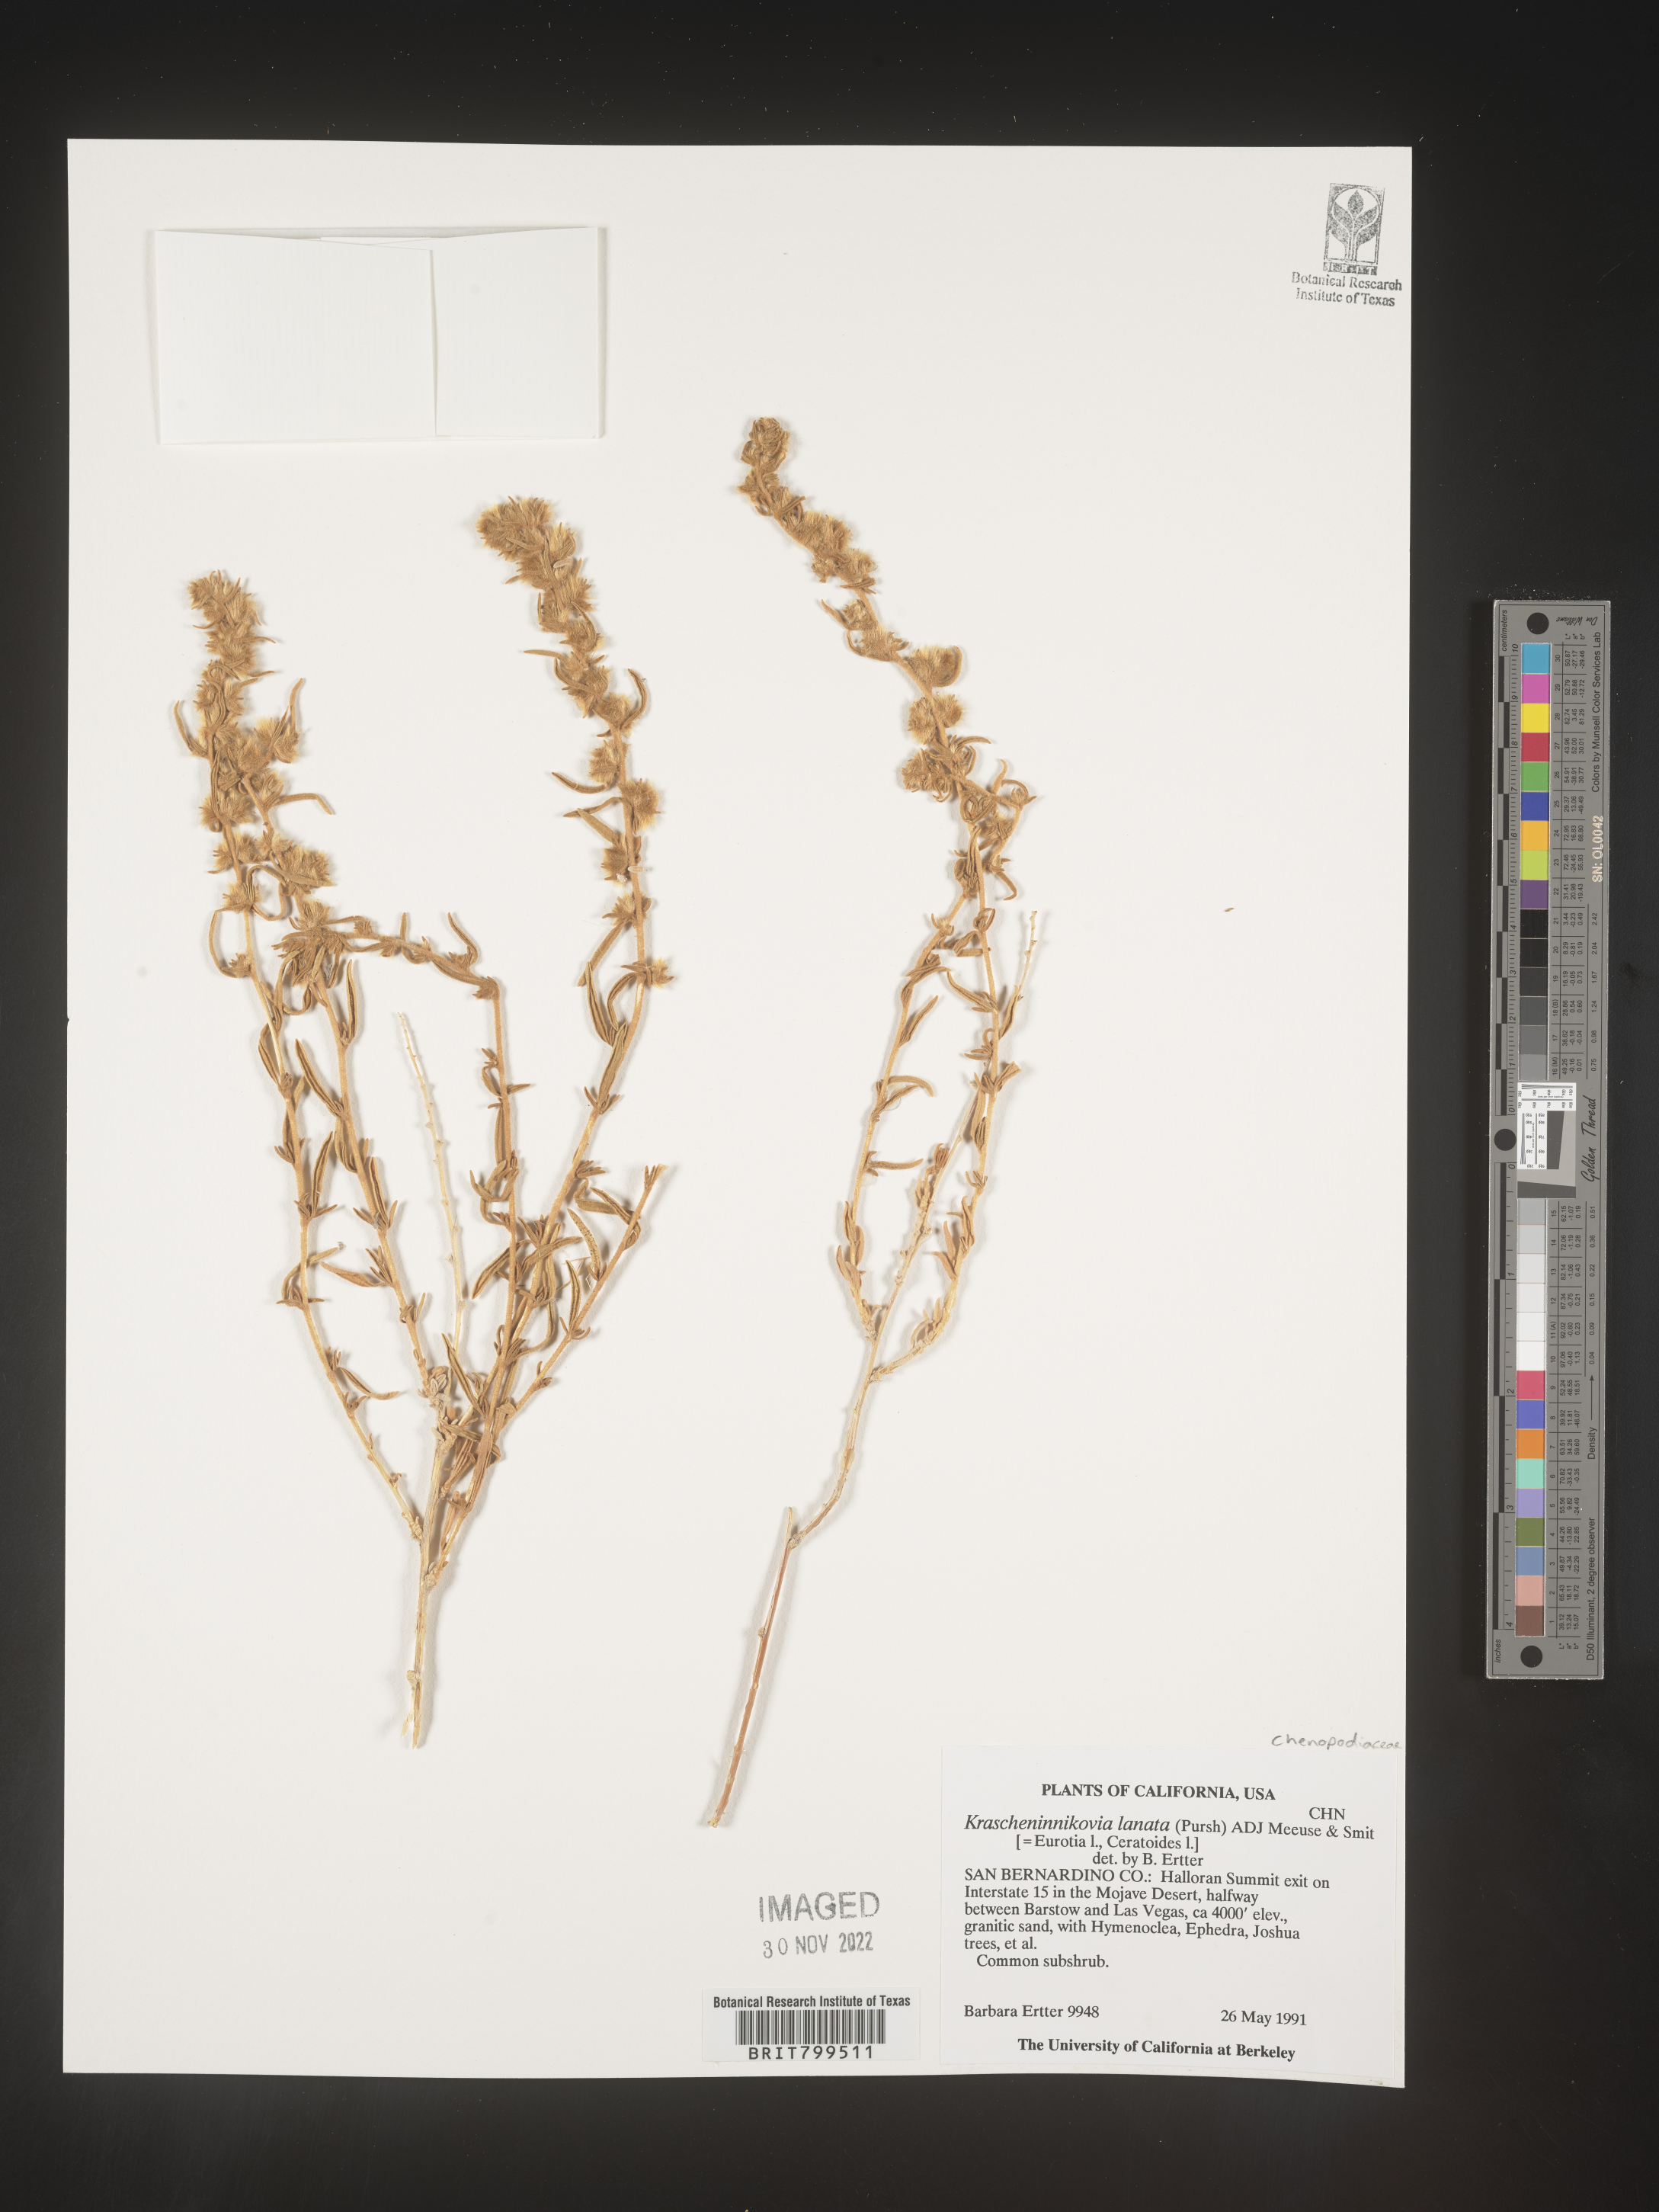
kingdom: Plantae
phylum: Tracheophyta
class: Magnoliopsida
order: Caryophyllales
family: Amaranthaceae
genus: Krascheninnikovia
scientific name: Krascheninnikovia
